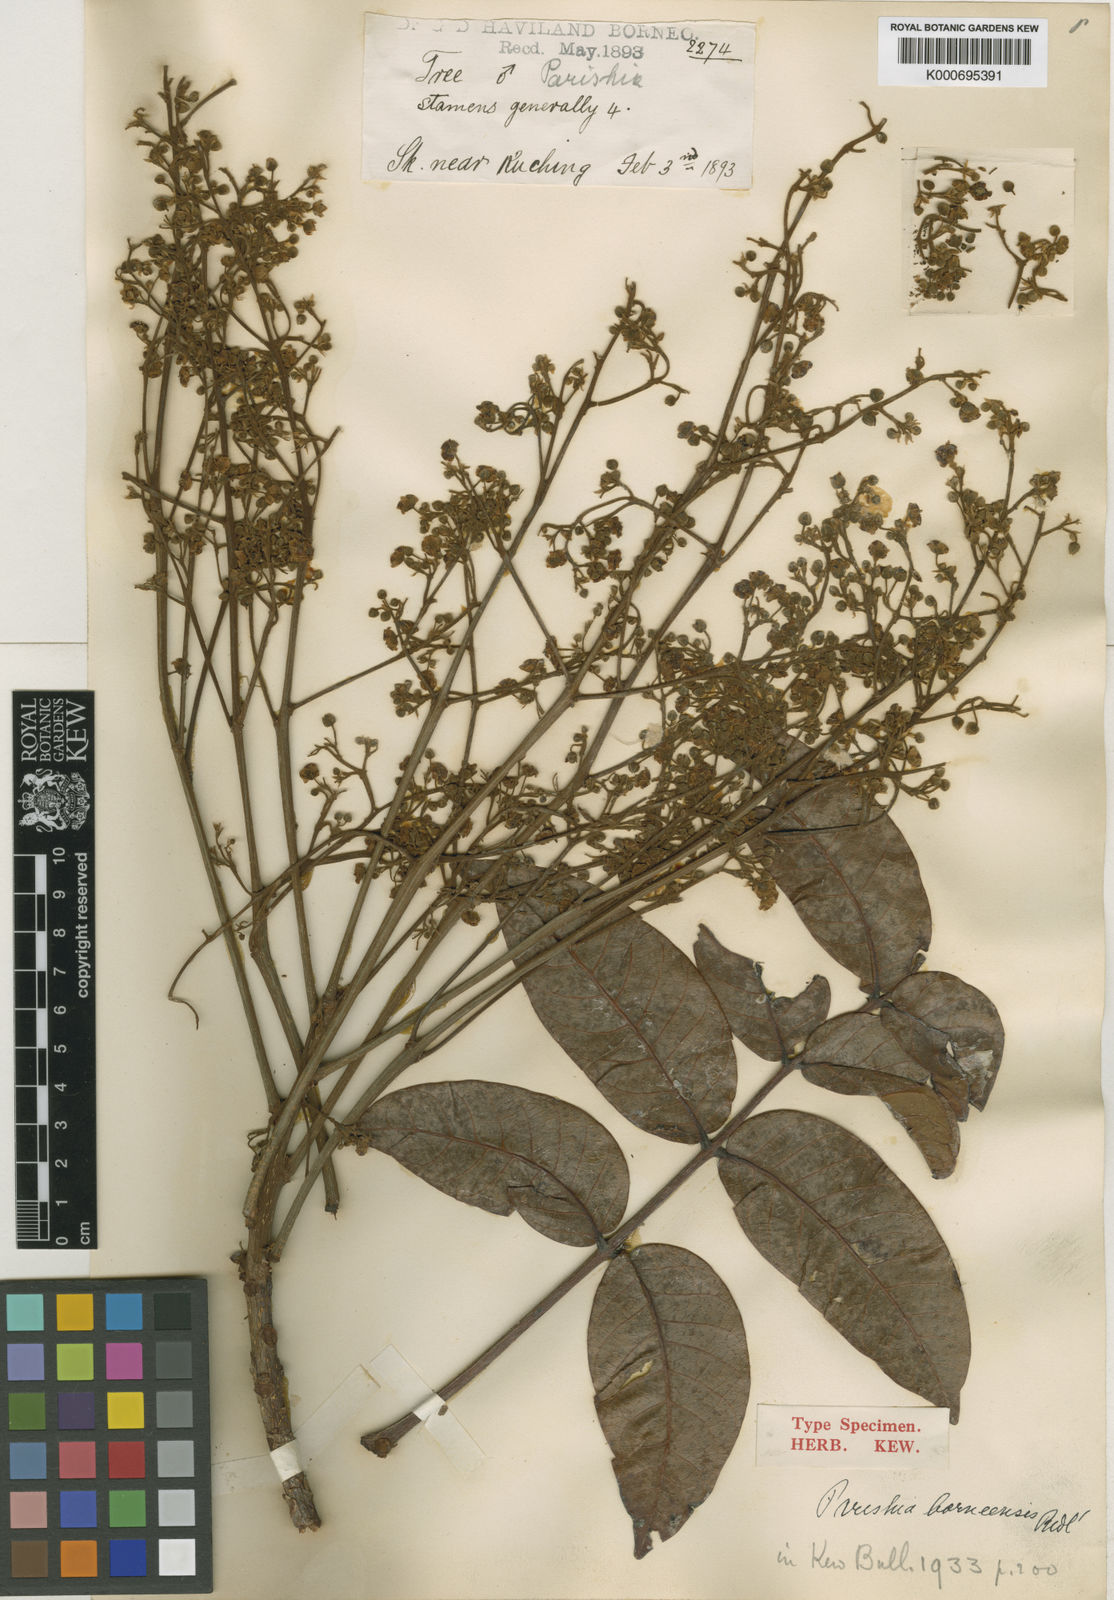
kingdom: Plantae
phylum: Tracheophyta
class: Magnoliopsida
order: Sapindales
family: Anacardiaceae
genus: Parishia
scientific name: Parishia insignis
